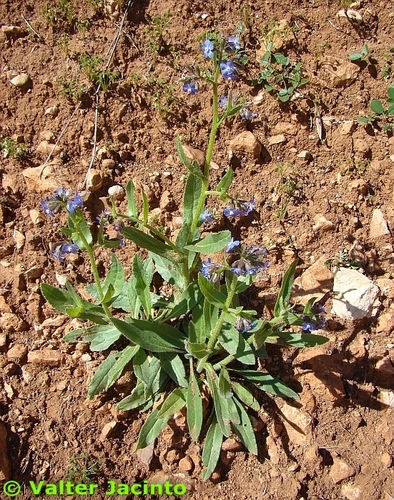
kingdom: Plantae
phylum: Tracheophyta
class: Magnoliopsida
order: Boraginales
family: Boraginaceae
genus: Anchusa
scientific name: Anchusa azurea
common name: Garden anchusa
